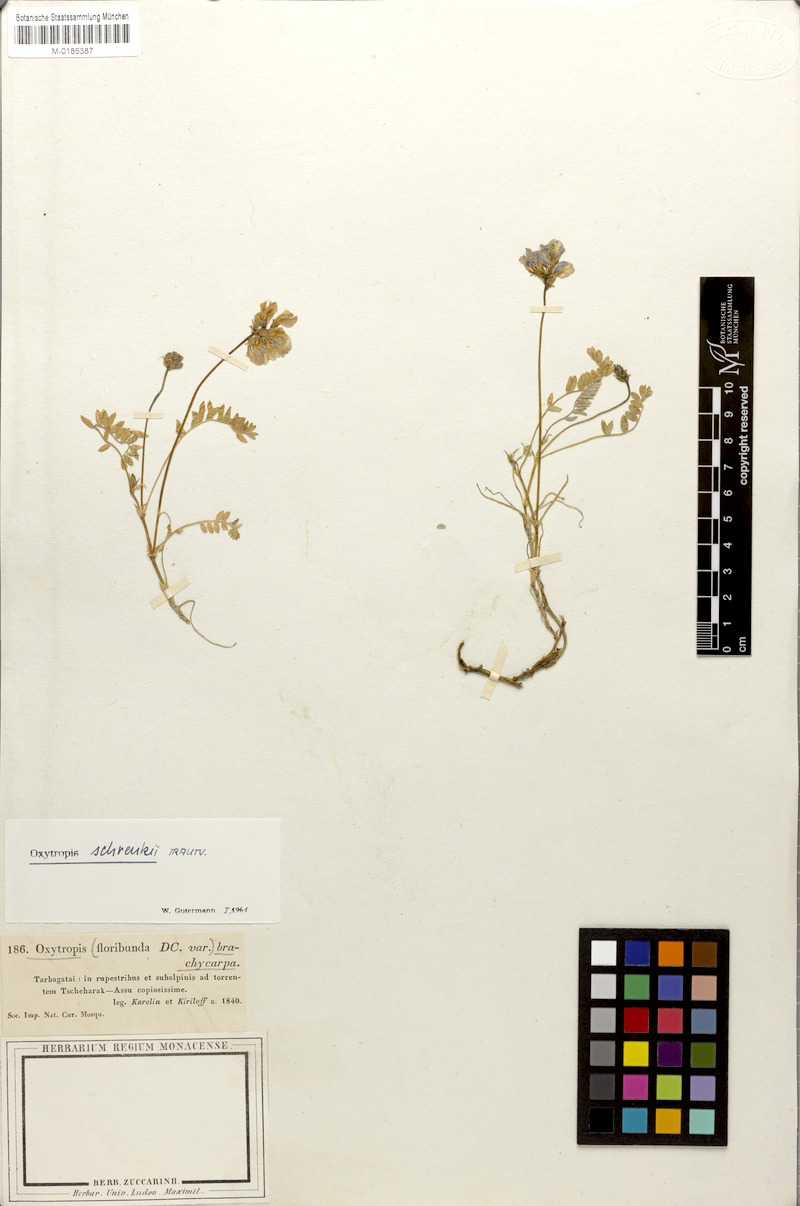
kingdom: Plantae
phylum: Tracheophyta
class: Magnoliopsida
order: Fabales
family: Fabaceae
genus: Oxytropis
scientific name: Oxytropis schrenkii
